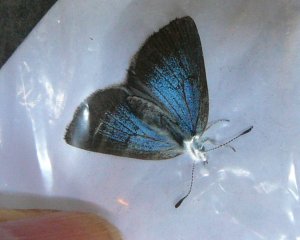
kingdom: Animalia
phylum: Arthropoda
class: Insecta
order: Lepidoptera
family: Lycaenidae
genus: Glaucopsyche
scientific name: Glaucopsyche lygdamus
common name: Silvery Blue
